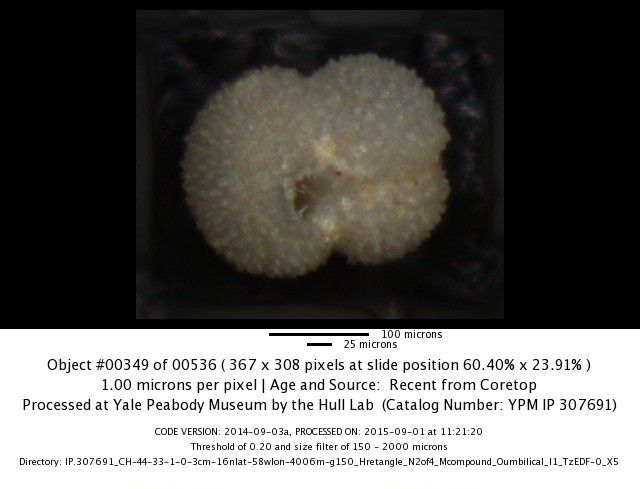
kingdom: Chromista
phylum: Foraminifera
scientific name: Foraminifera
